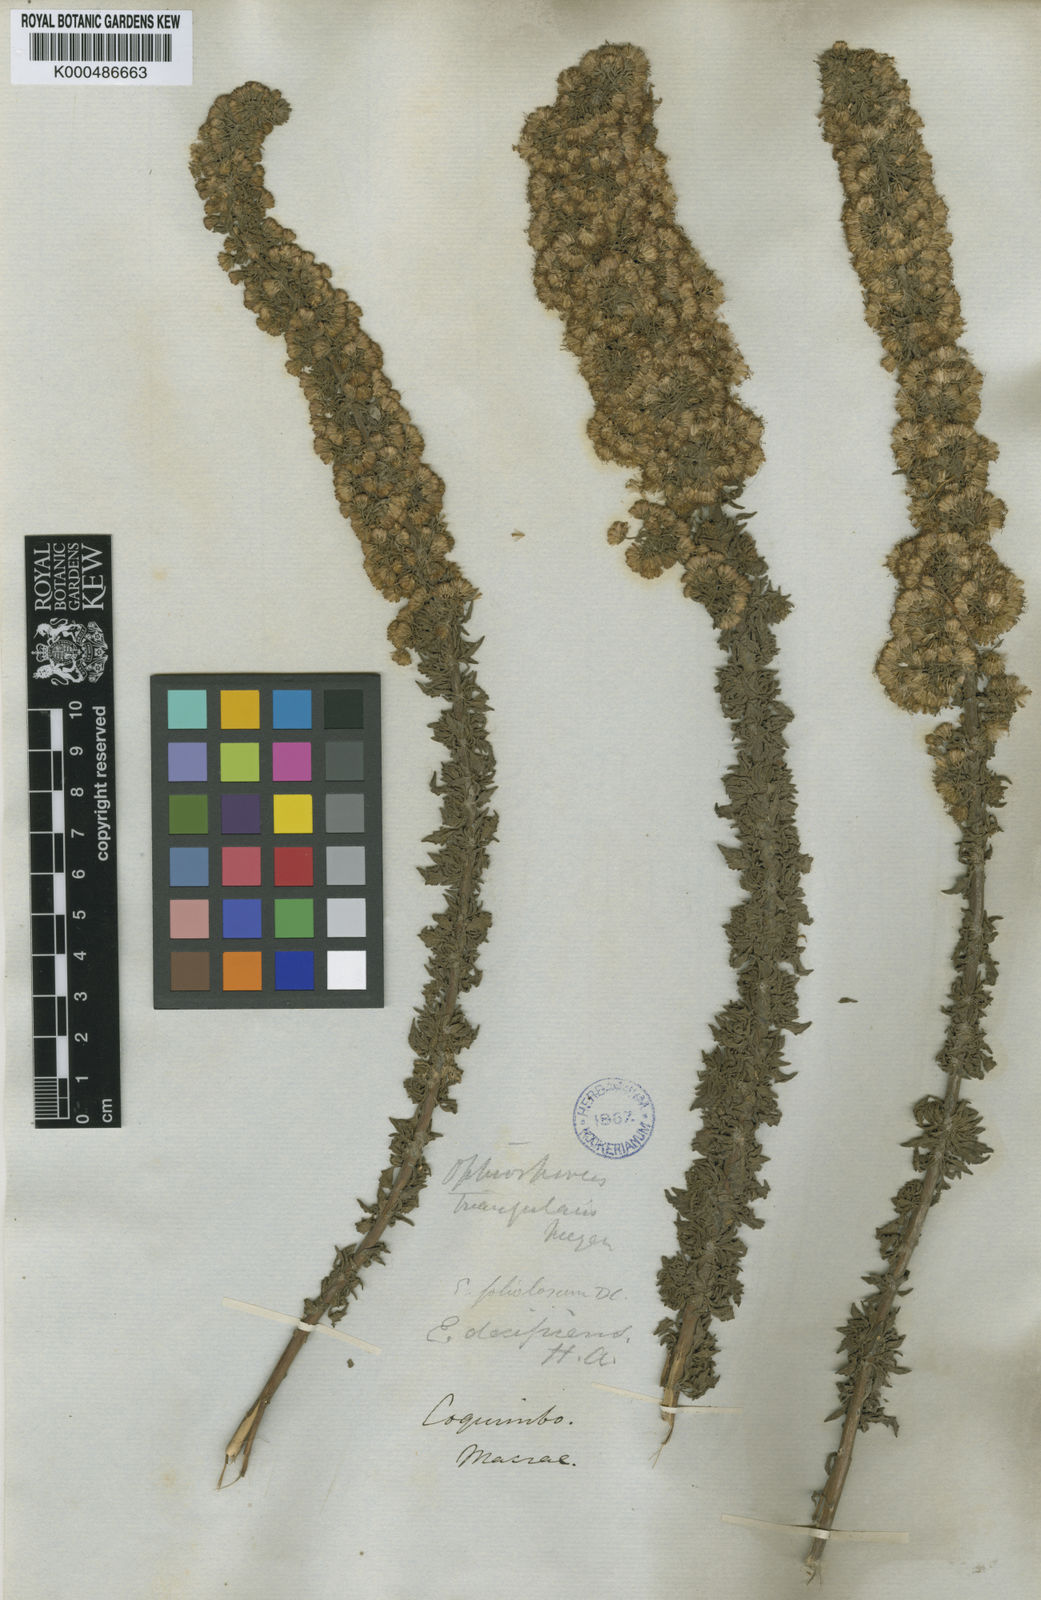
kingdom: Plantae
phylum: Tracheophyta
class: Magnoliopsida
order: Asterales
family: Asteraceae
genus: Ophryosporus
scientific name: Ophryosporus triangularis
